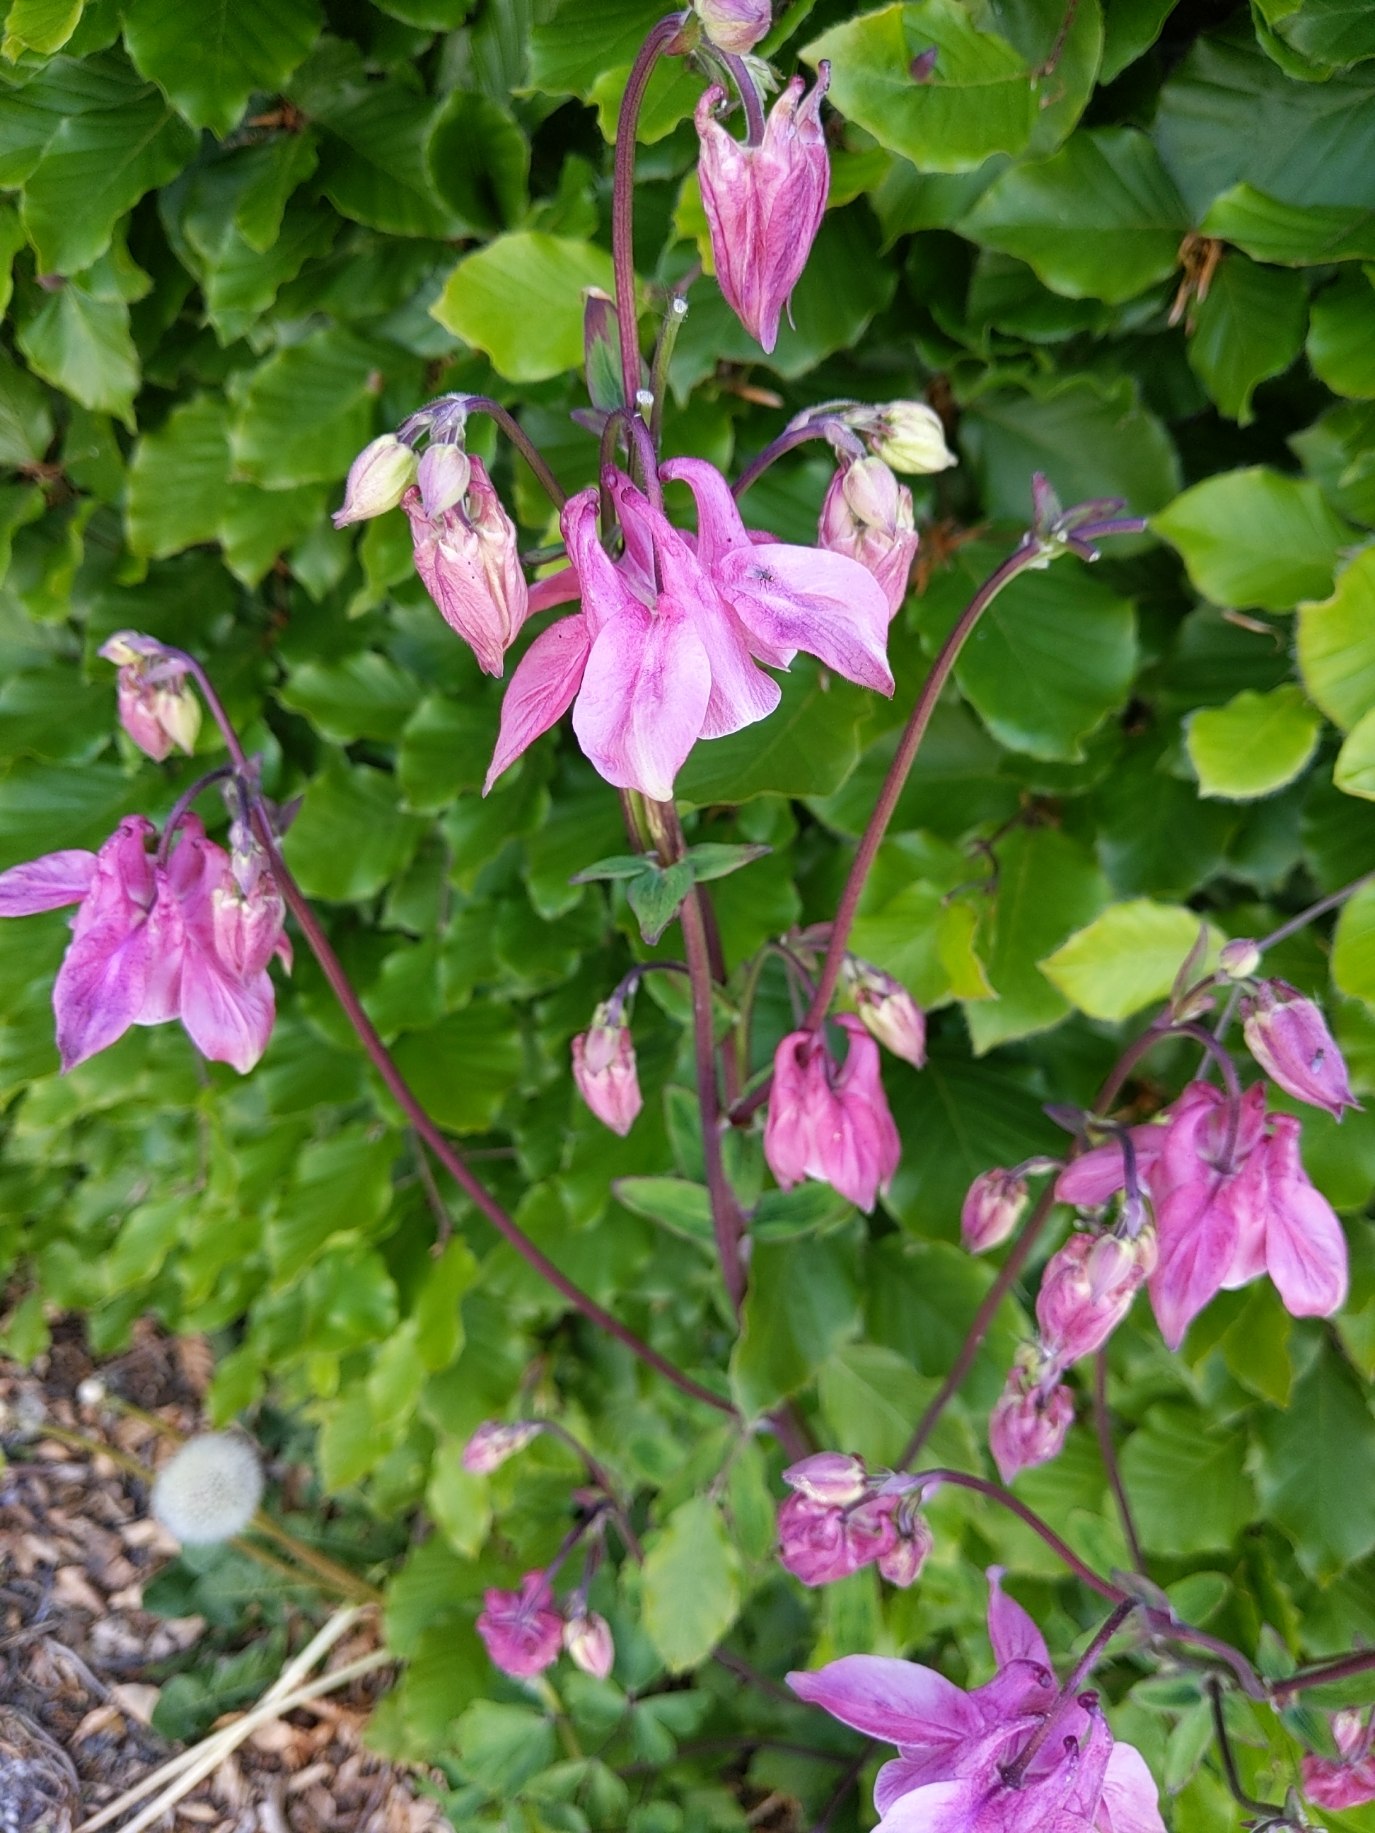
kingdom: Plantae
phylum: Tracheophyta
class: Magnoliopsida
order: Ranunculales
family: Ranunculaceae
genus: Aquilegia
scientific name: Aquilegia vulgaris
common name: Akeleje
